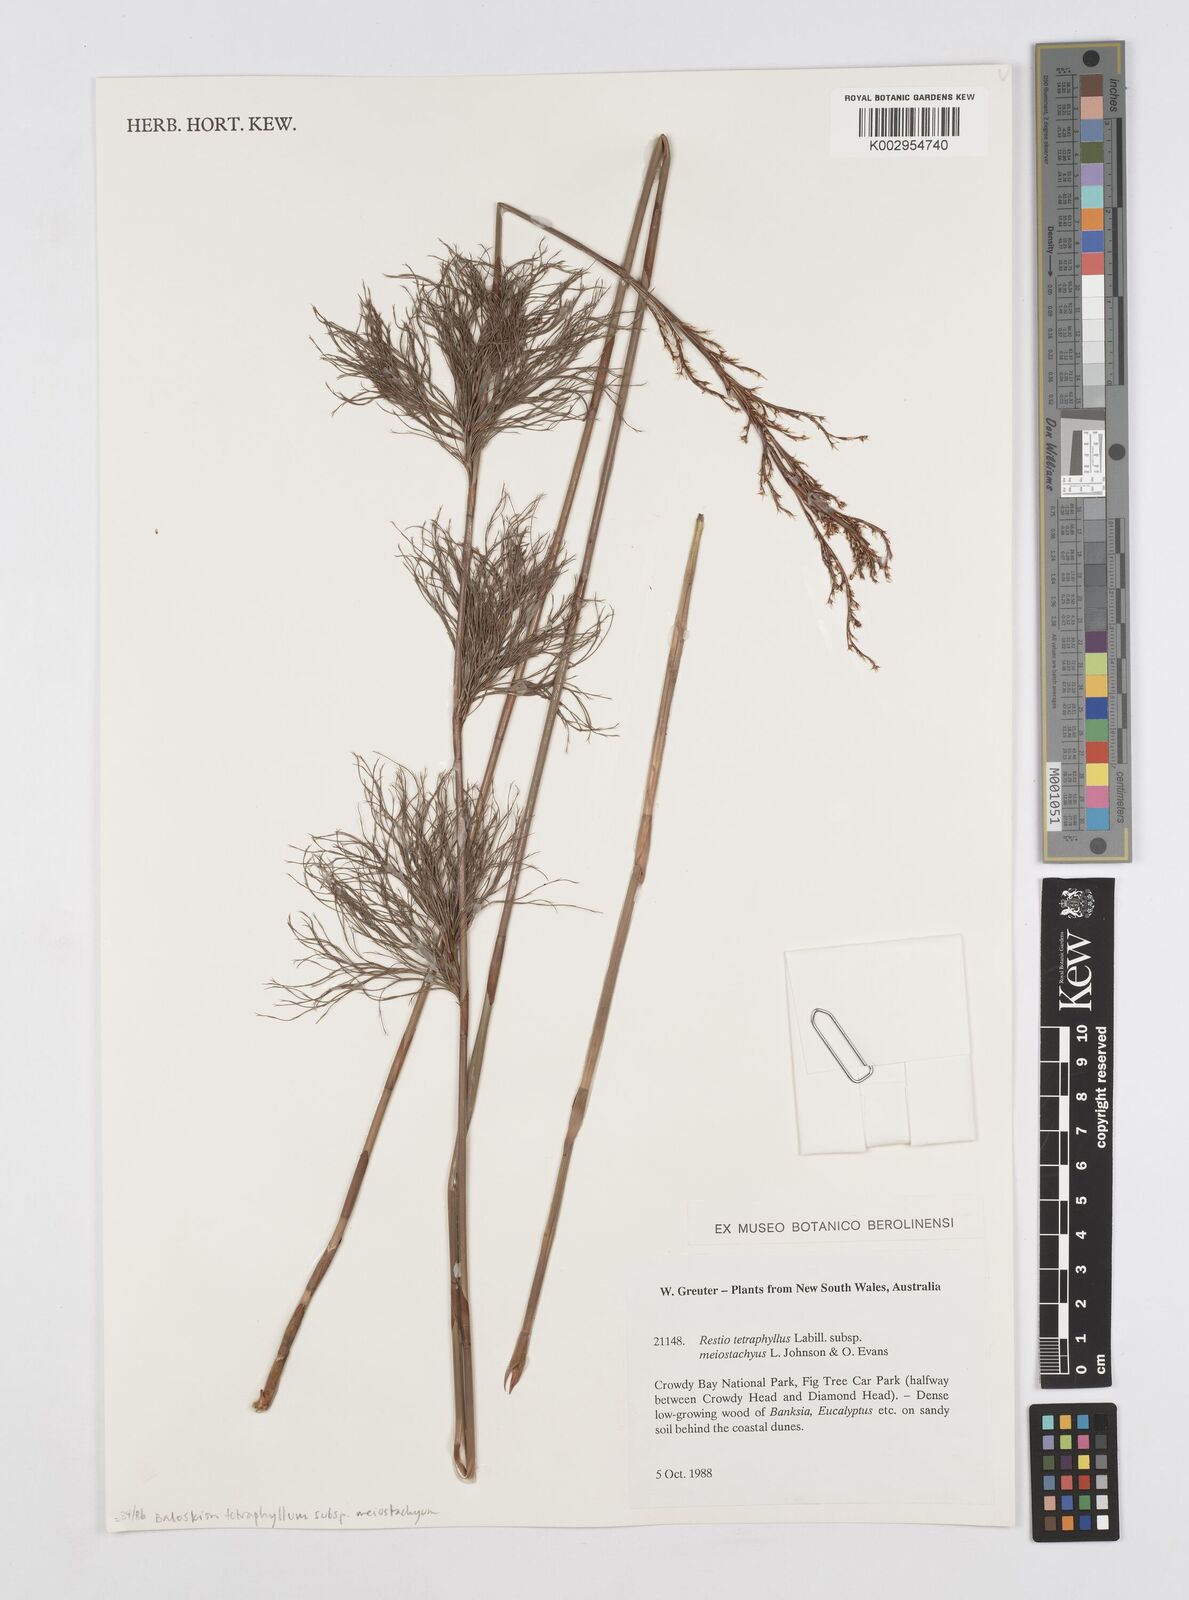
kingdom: Plantae
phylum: Tracheophyta
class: Liliopsida
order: Poales
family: Restionaceae
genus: Baloskion
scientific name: Baloskion tetraphyllum
